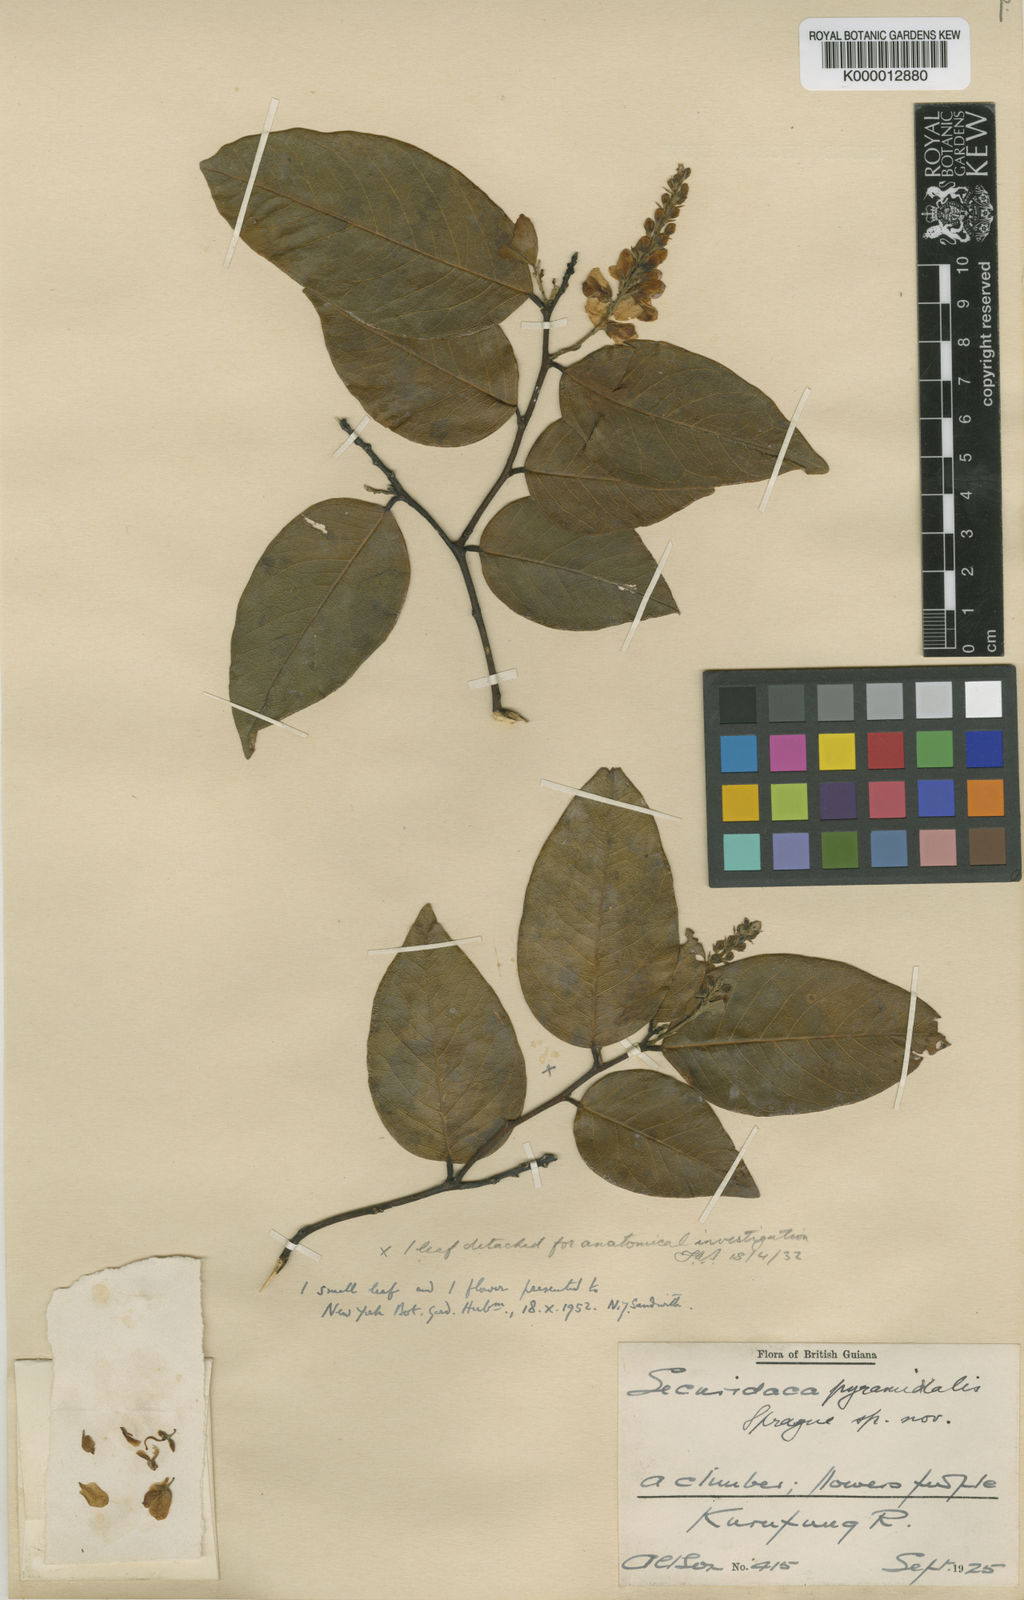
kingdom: Plantae
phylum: Tracheophyta
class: Magnoliopsida
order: Fabales
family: Polygalaceae
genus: Securidaca
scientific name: Securidaca
